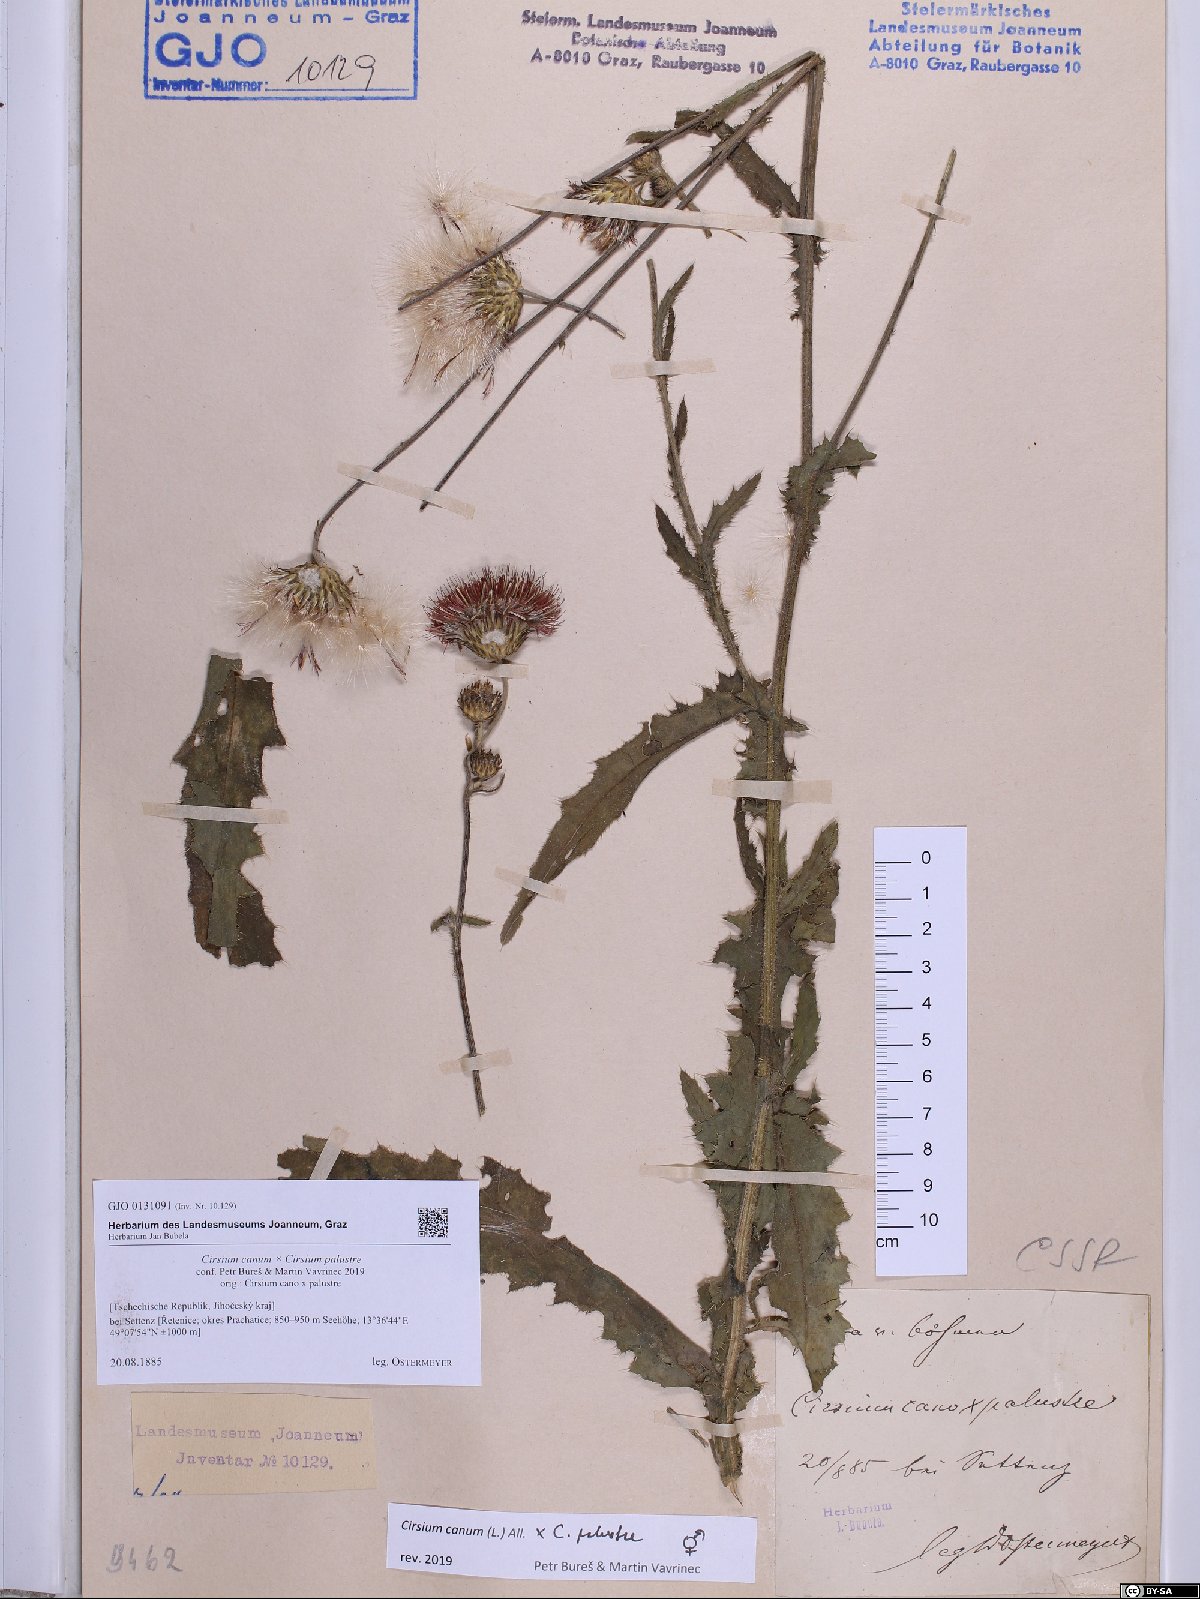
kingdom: Plantae
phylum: Tracheophyta
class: Magnoliopsida
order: Asterales
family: Asteraceae
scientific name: Asteraceae
